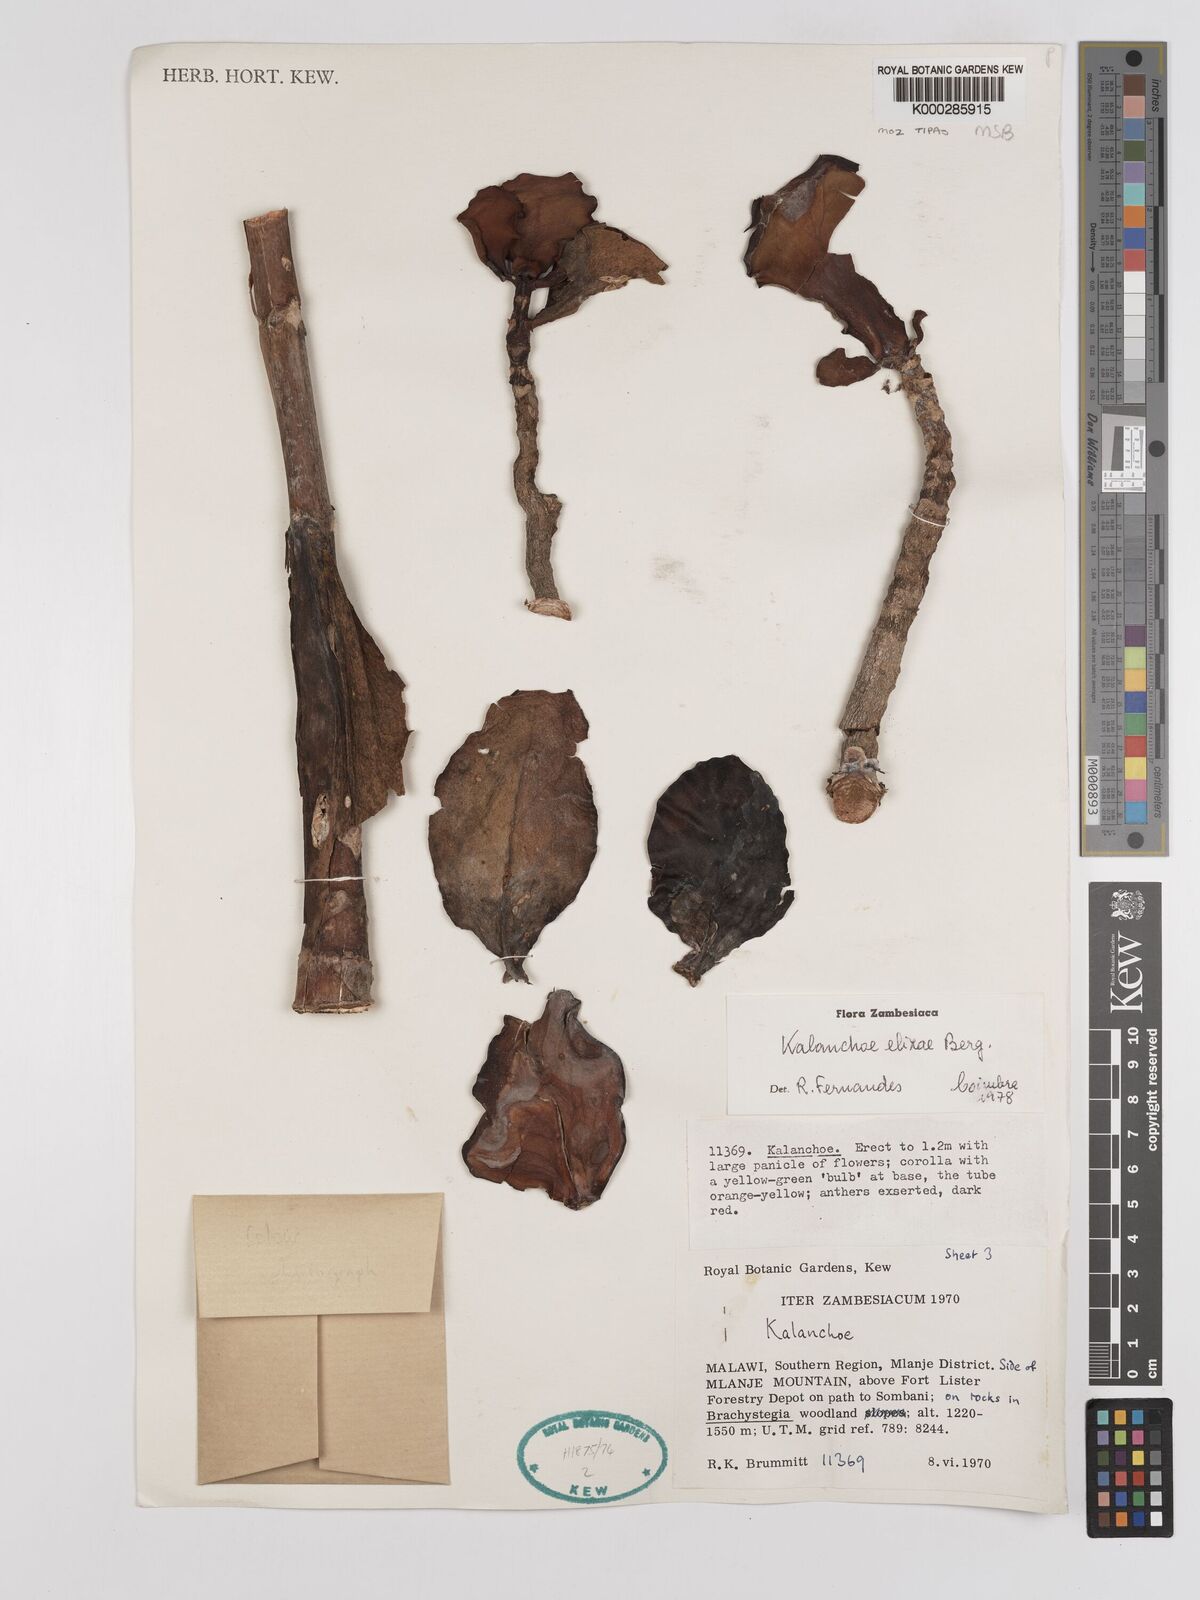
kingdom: Plantae
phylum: Tracheophyta
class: Magnoliopsida
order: Saxifragales
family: Crassulaceae
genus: Kalanchoe
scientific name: Kalanchoe elizae
